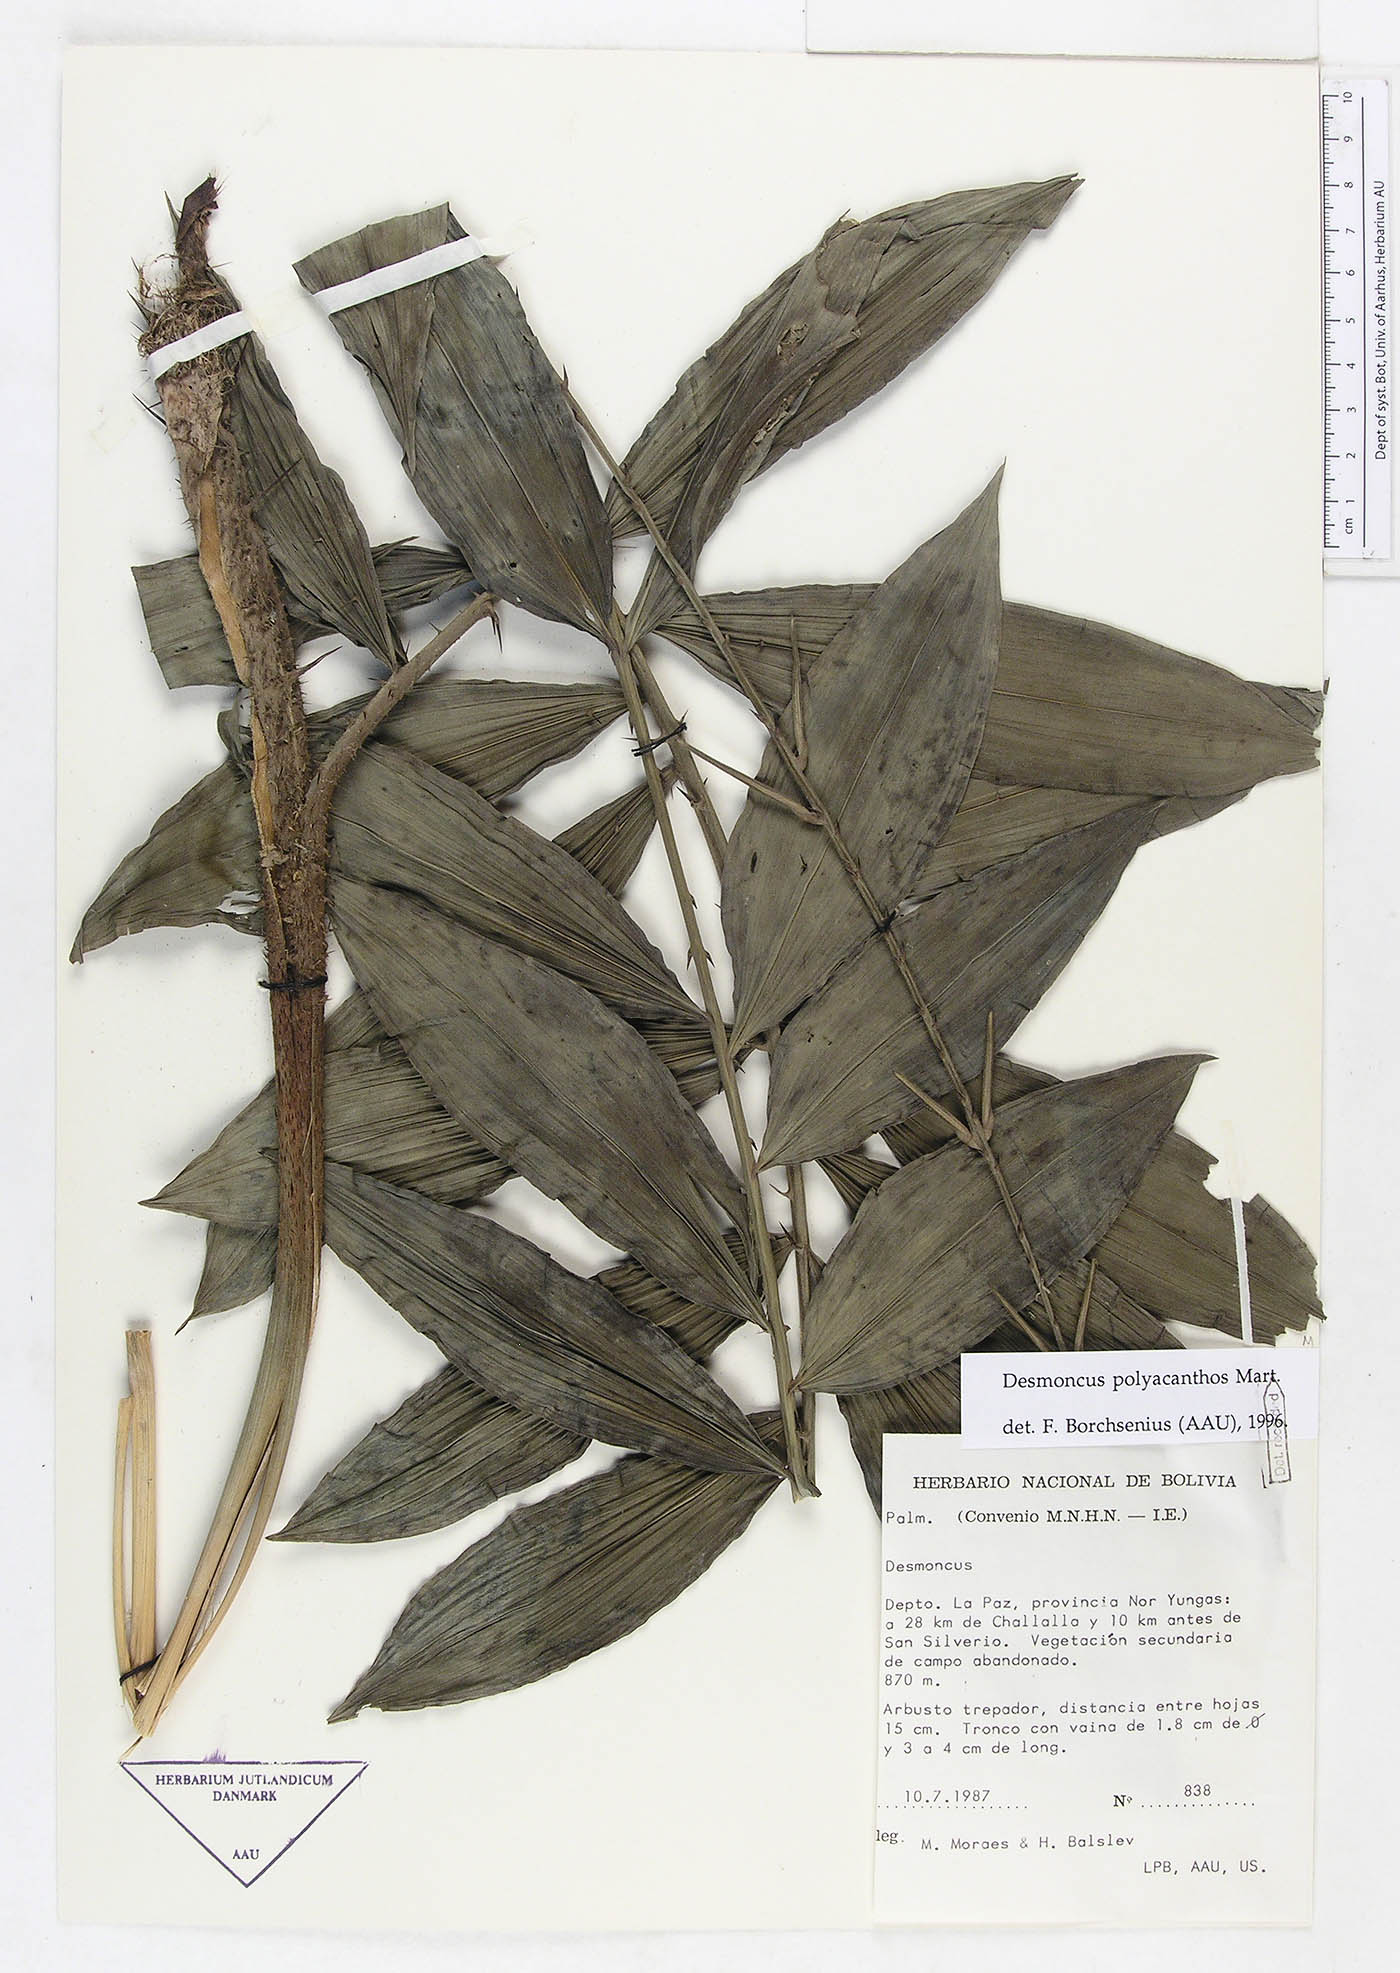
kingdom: Plantae
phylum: Tracheophyta
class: Liliopsida
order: Arecales
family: Arecaceae
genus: Desmoncus
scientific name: Desmoncus polyacanthos
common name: Suriname bramble palm
